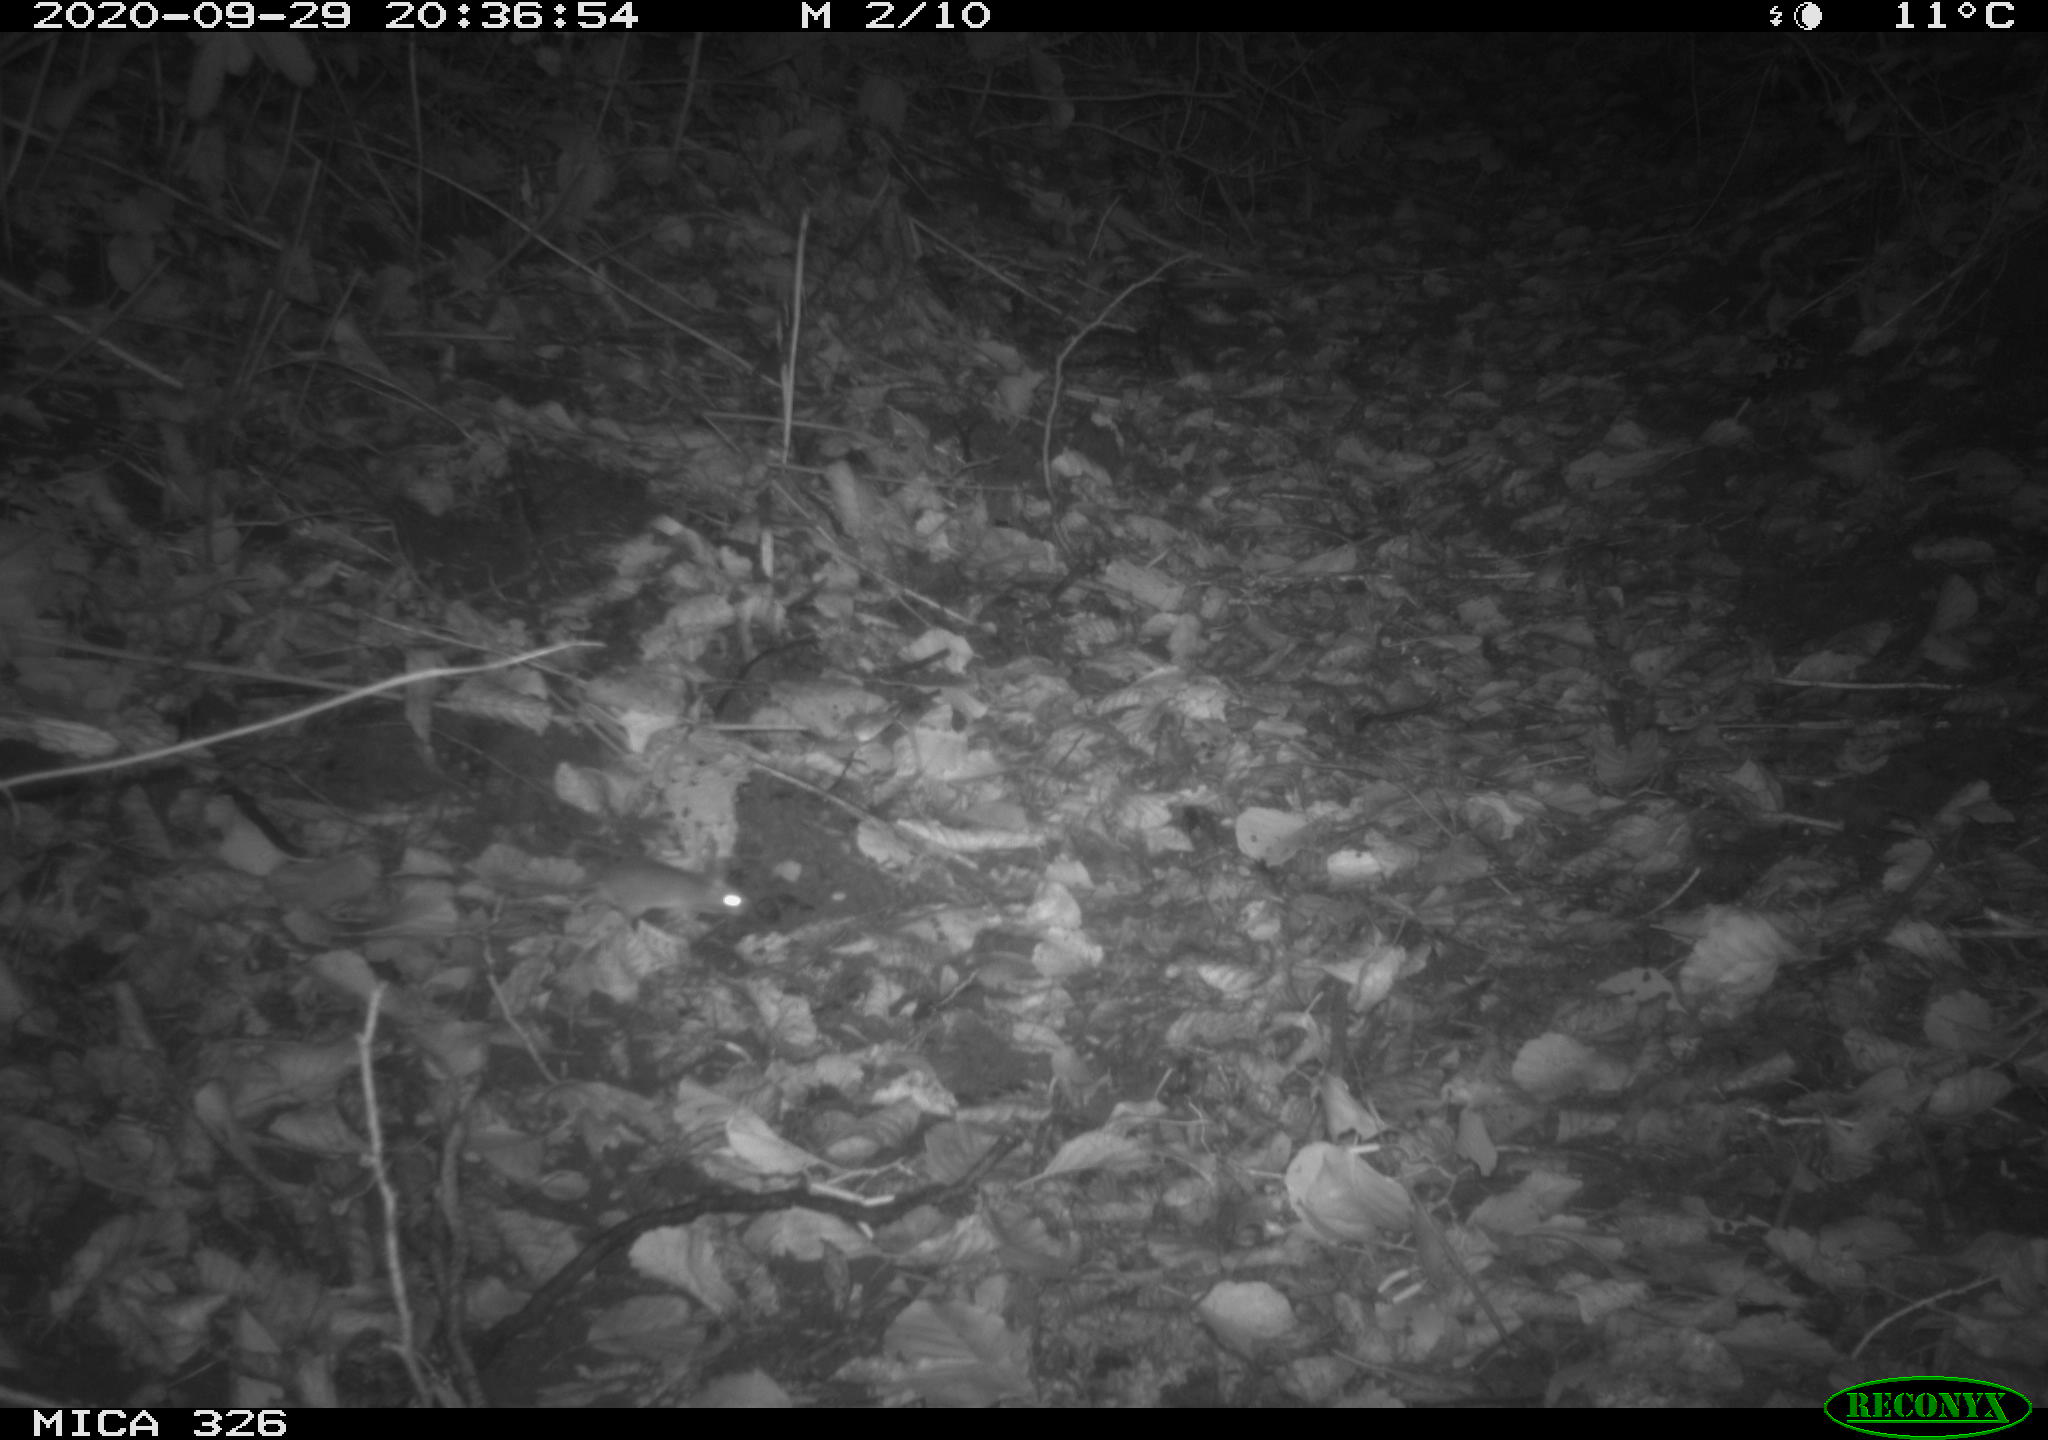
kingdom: Animalia
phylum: Chordata
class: Mammalia
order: Rodentia
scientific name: Rodentia
